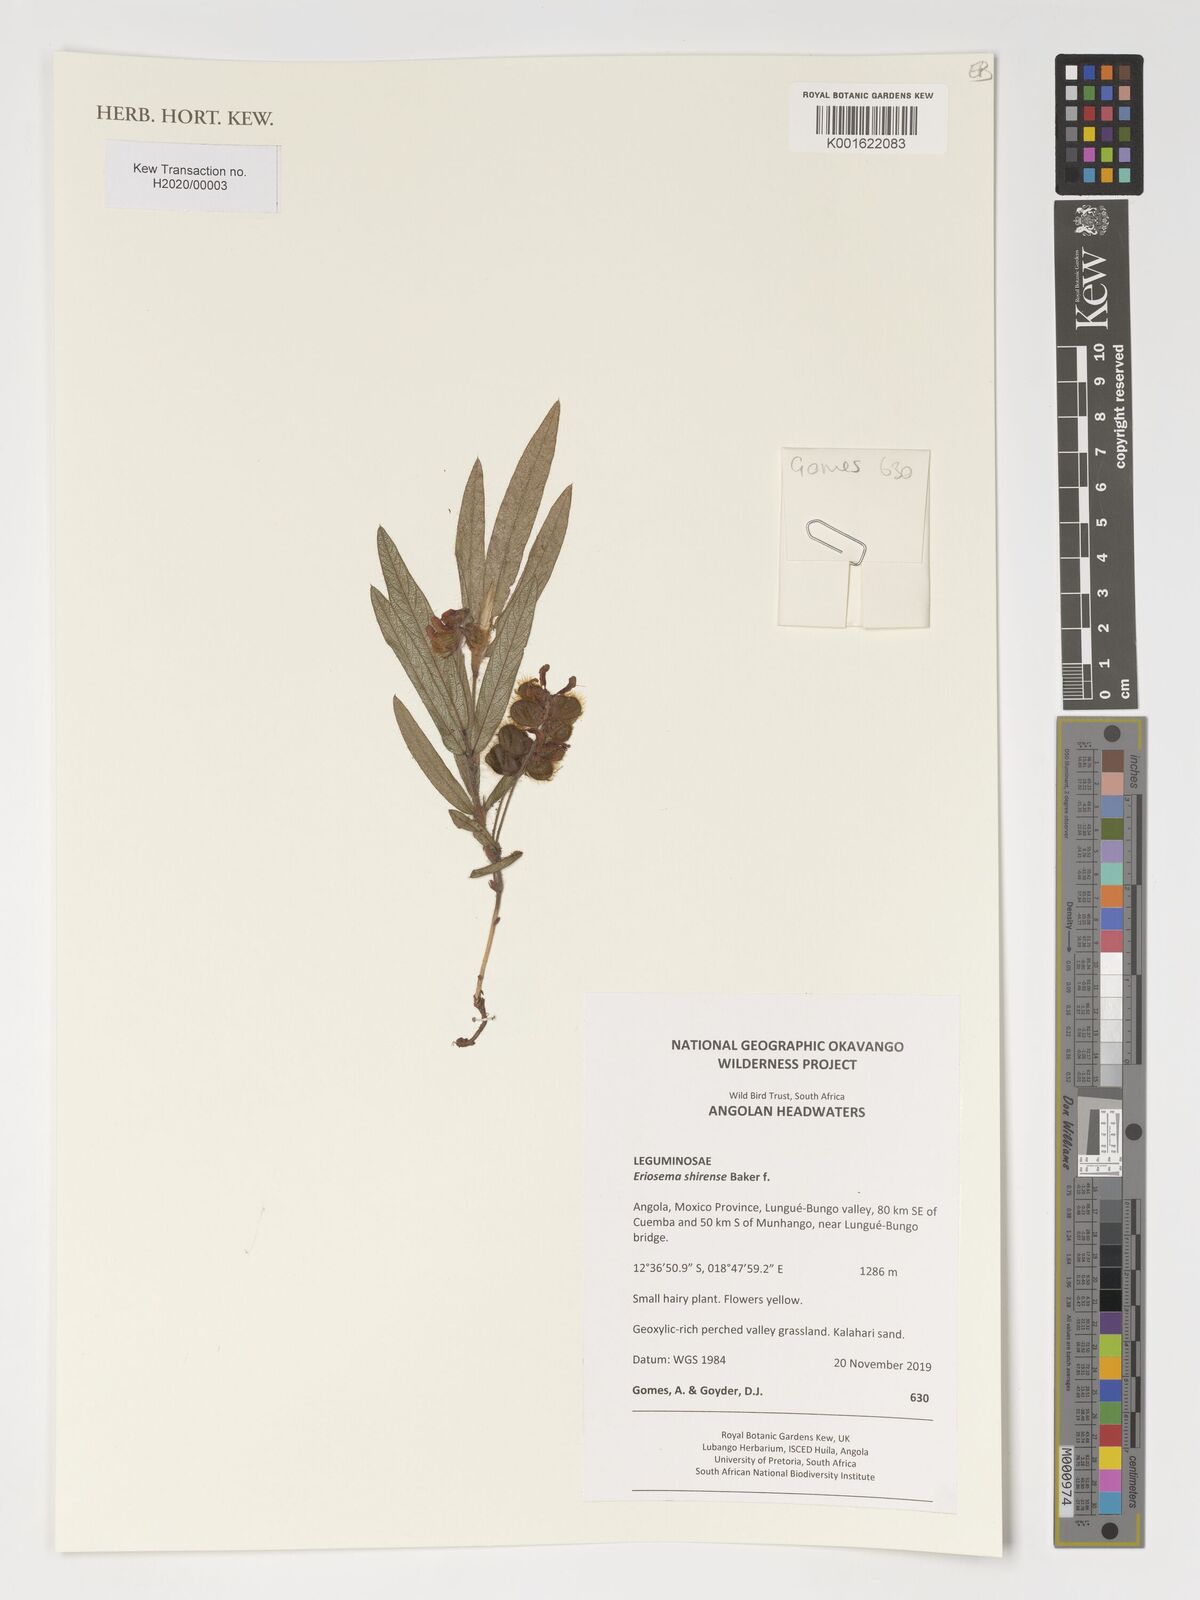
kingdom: Plantae
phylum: Tracheophyta
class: Magnoliopsida
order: Fabales
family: Fabaceae
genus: Eriosema
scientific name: Eriosema shirense
